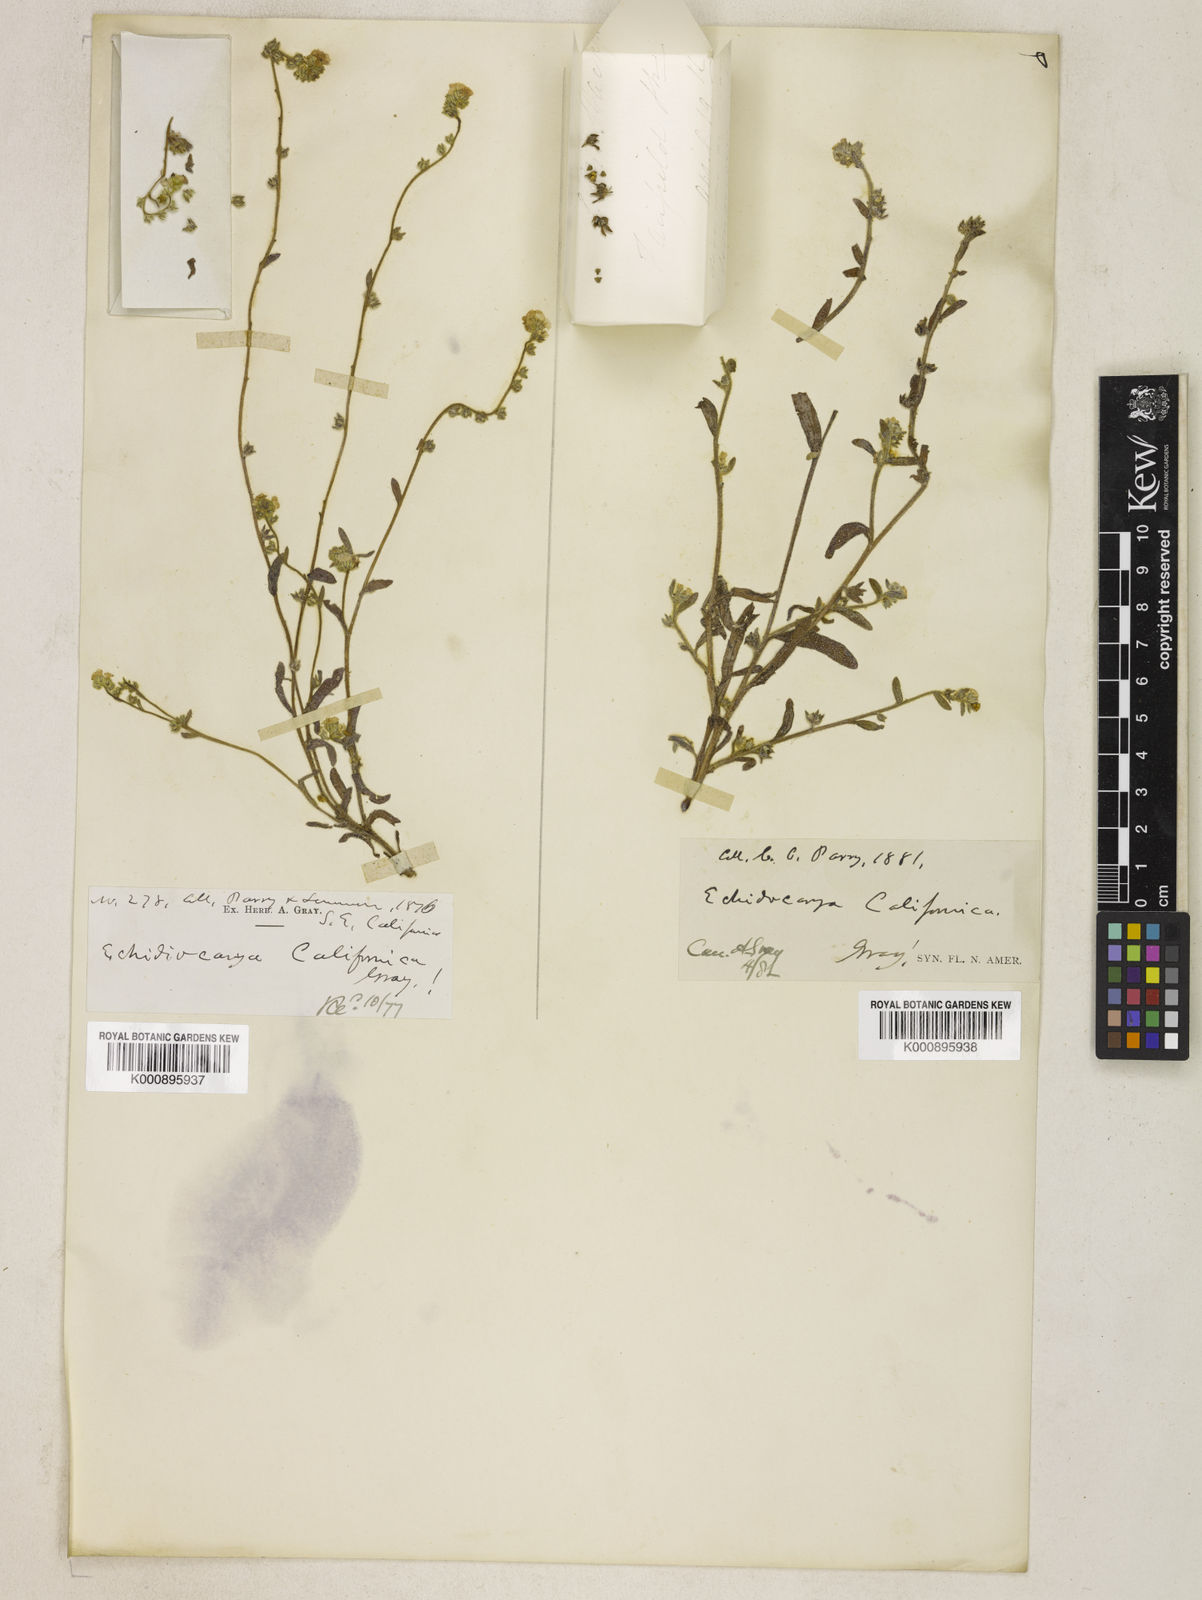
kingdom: Plantae
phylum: Tracheophyta
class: Magnoliopsida
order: Boraginales
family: Boraginaceae
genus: Plagiobothrys
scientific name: Plagiobothrys
